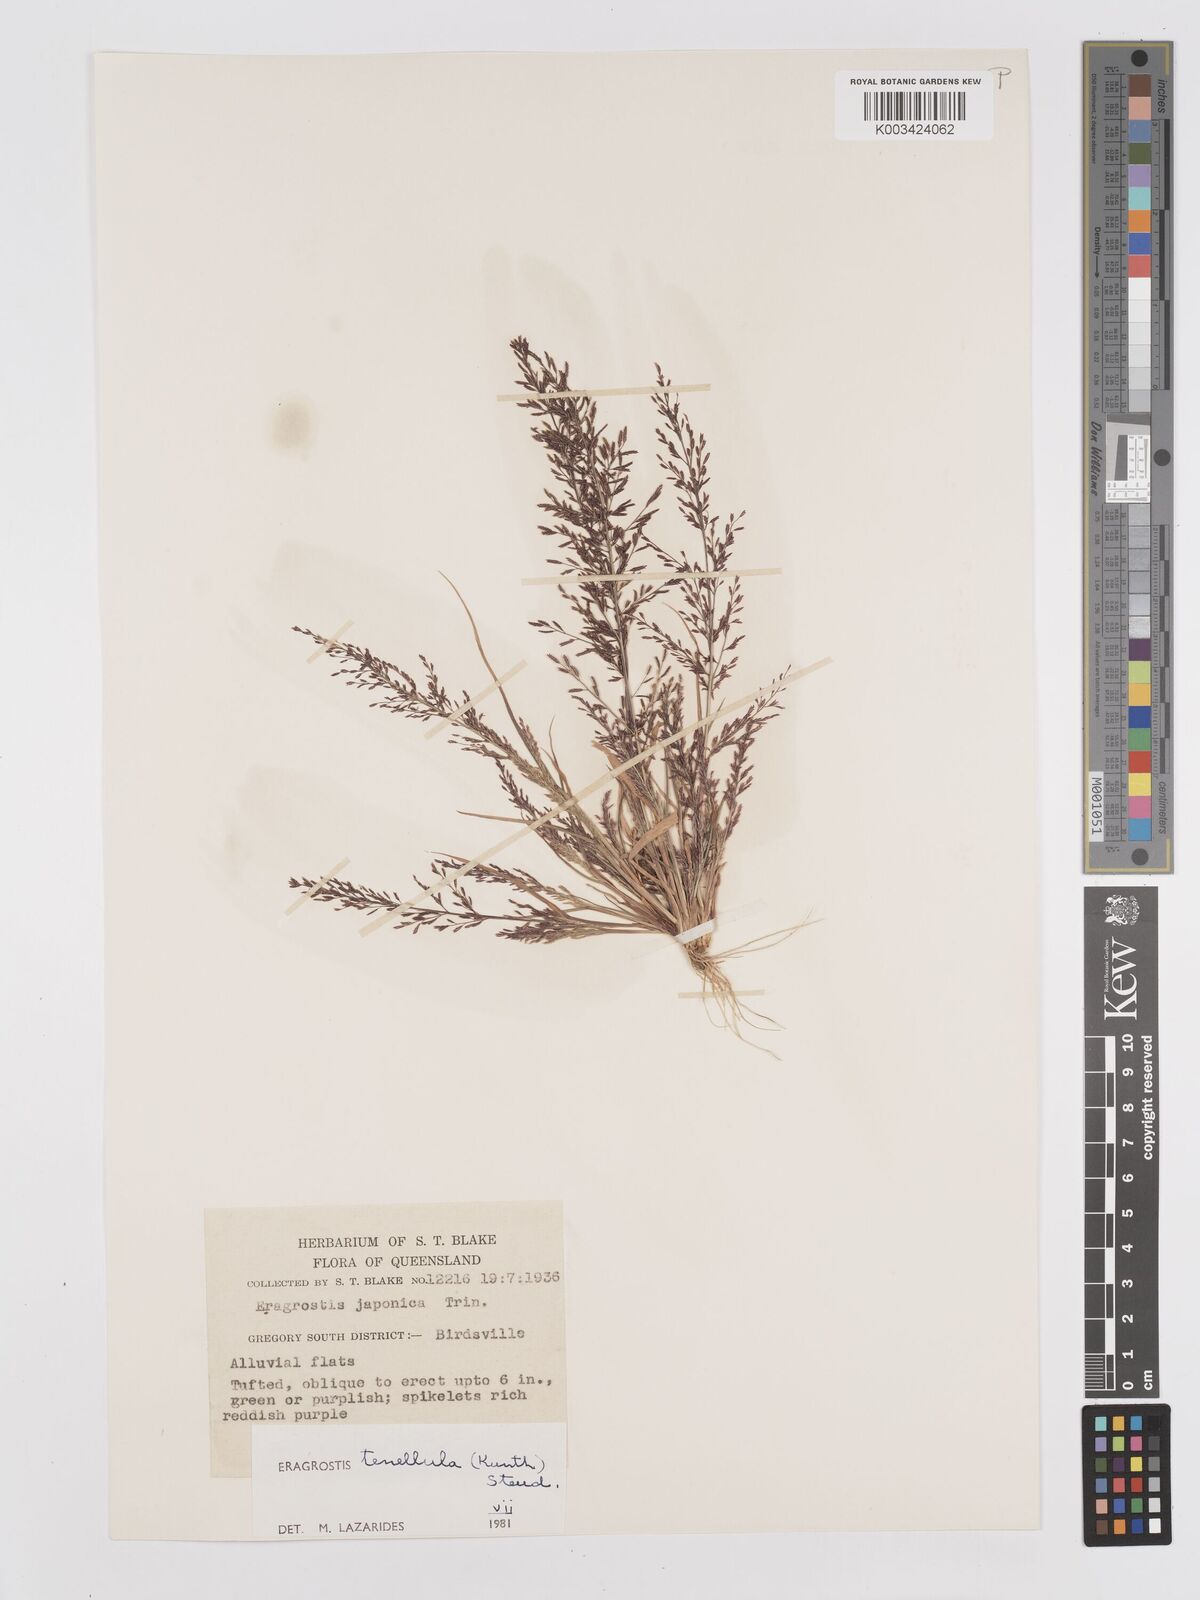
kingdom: Plantae
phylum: Tracheophyta
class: Liliopsida
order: Poales
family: Poaceae
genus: Eragrostis
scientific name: Eragrostis tenellula
